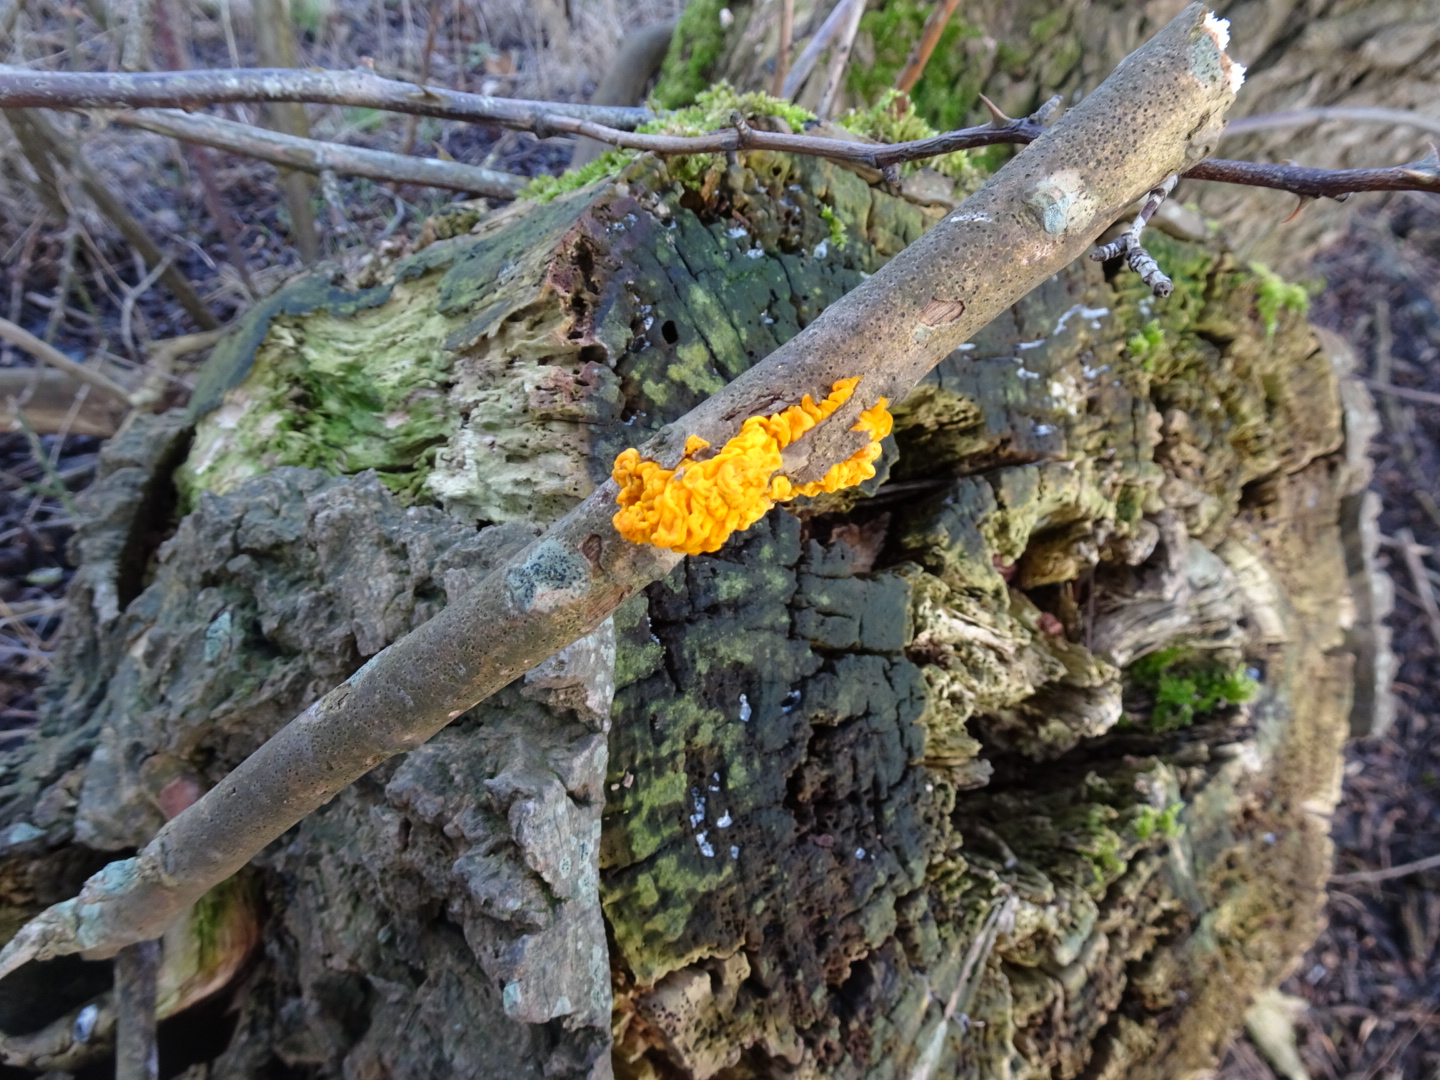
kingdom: Fungi
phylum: Basidiomycota
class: Tremellomycetes
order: Tremellales
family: Tremellaceae
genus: Tremella
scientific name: Tremella mesenterica
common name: gul bævresvamp
